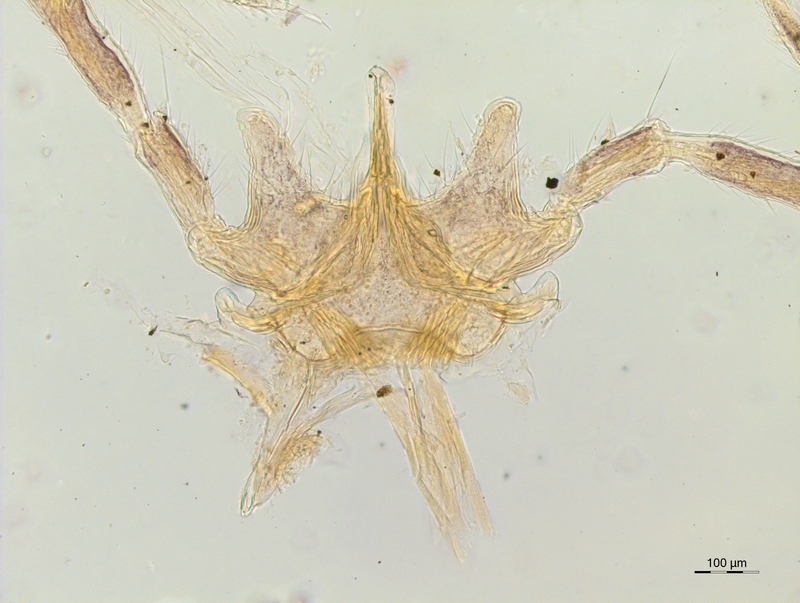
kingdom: Animalia
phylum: Arthropoda
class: Diplopoda
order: Chordeumatida
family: Attemsiidae
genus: Polyphematia
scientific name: Polyphematia moniliformis
